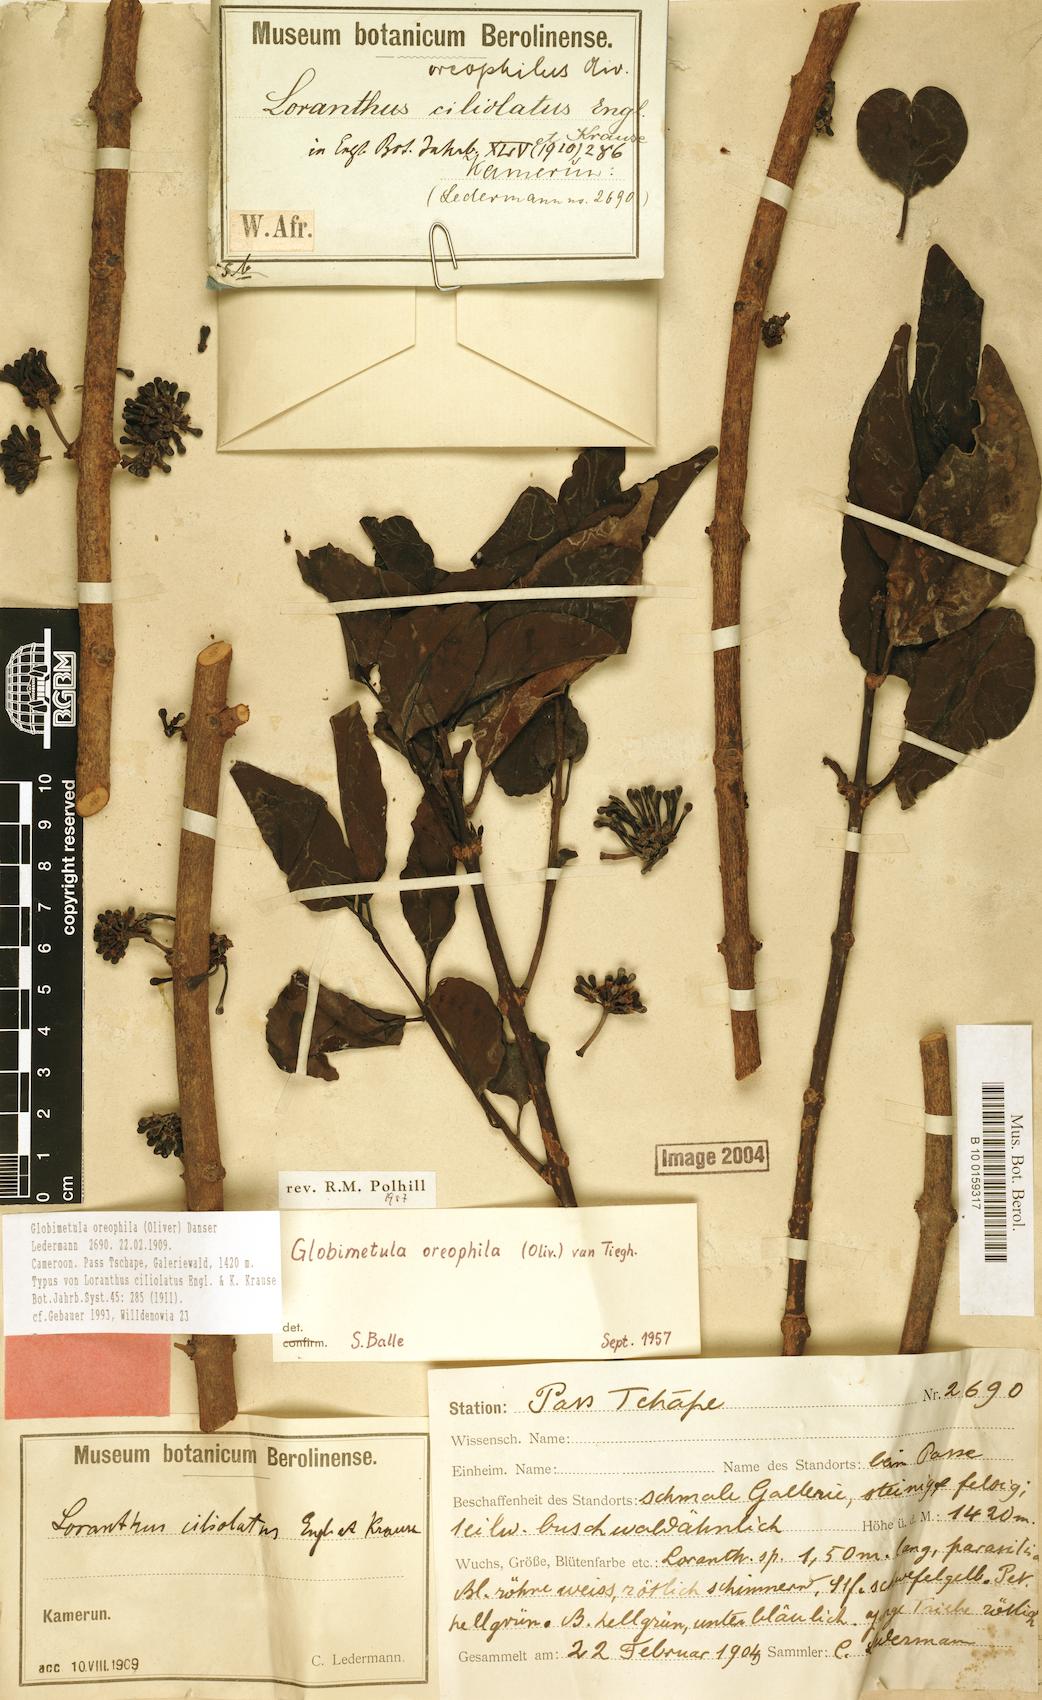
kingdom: Plantae
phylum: Tracheophyta
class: Magnoliopsida
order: Santalales
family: Loranthaceae
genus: Globimetula
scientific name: Globimetula oreophila
